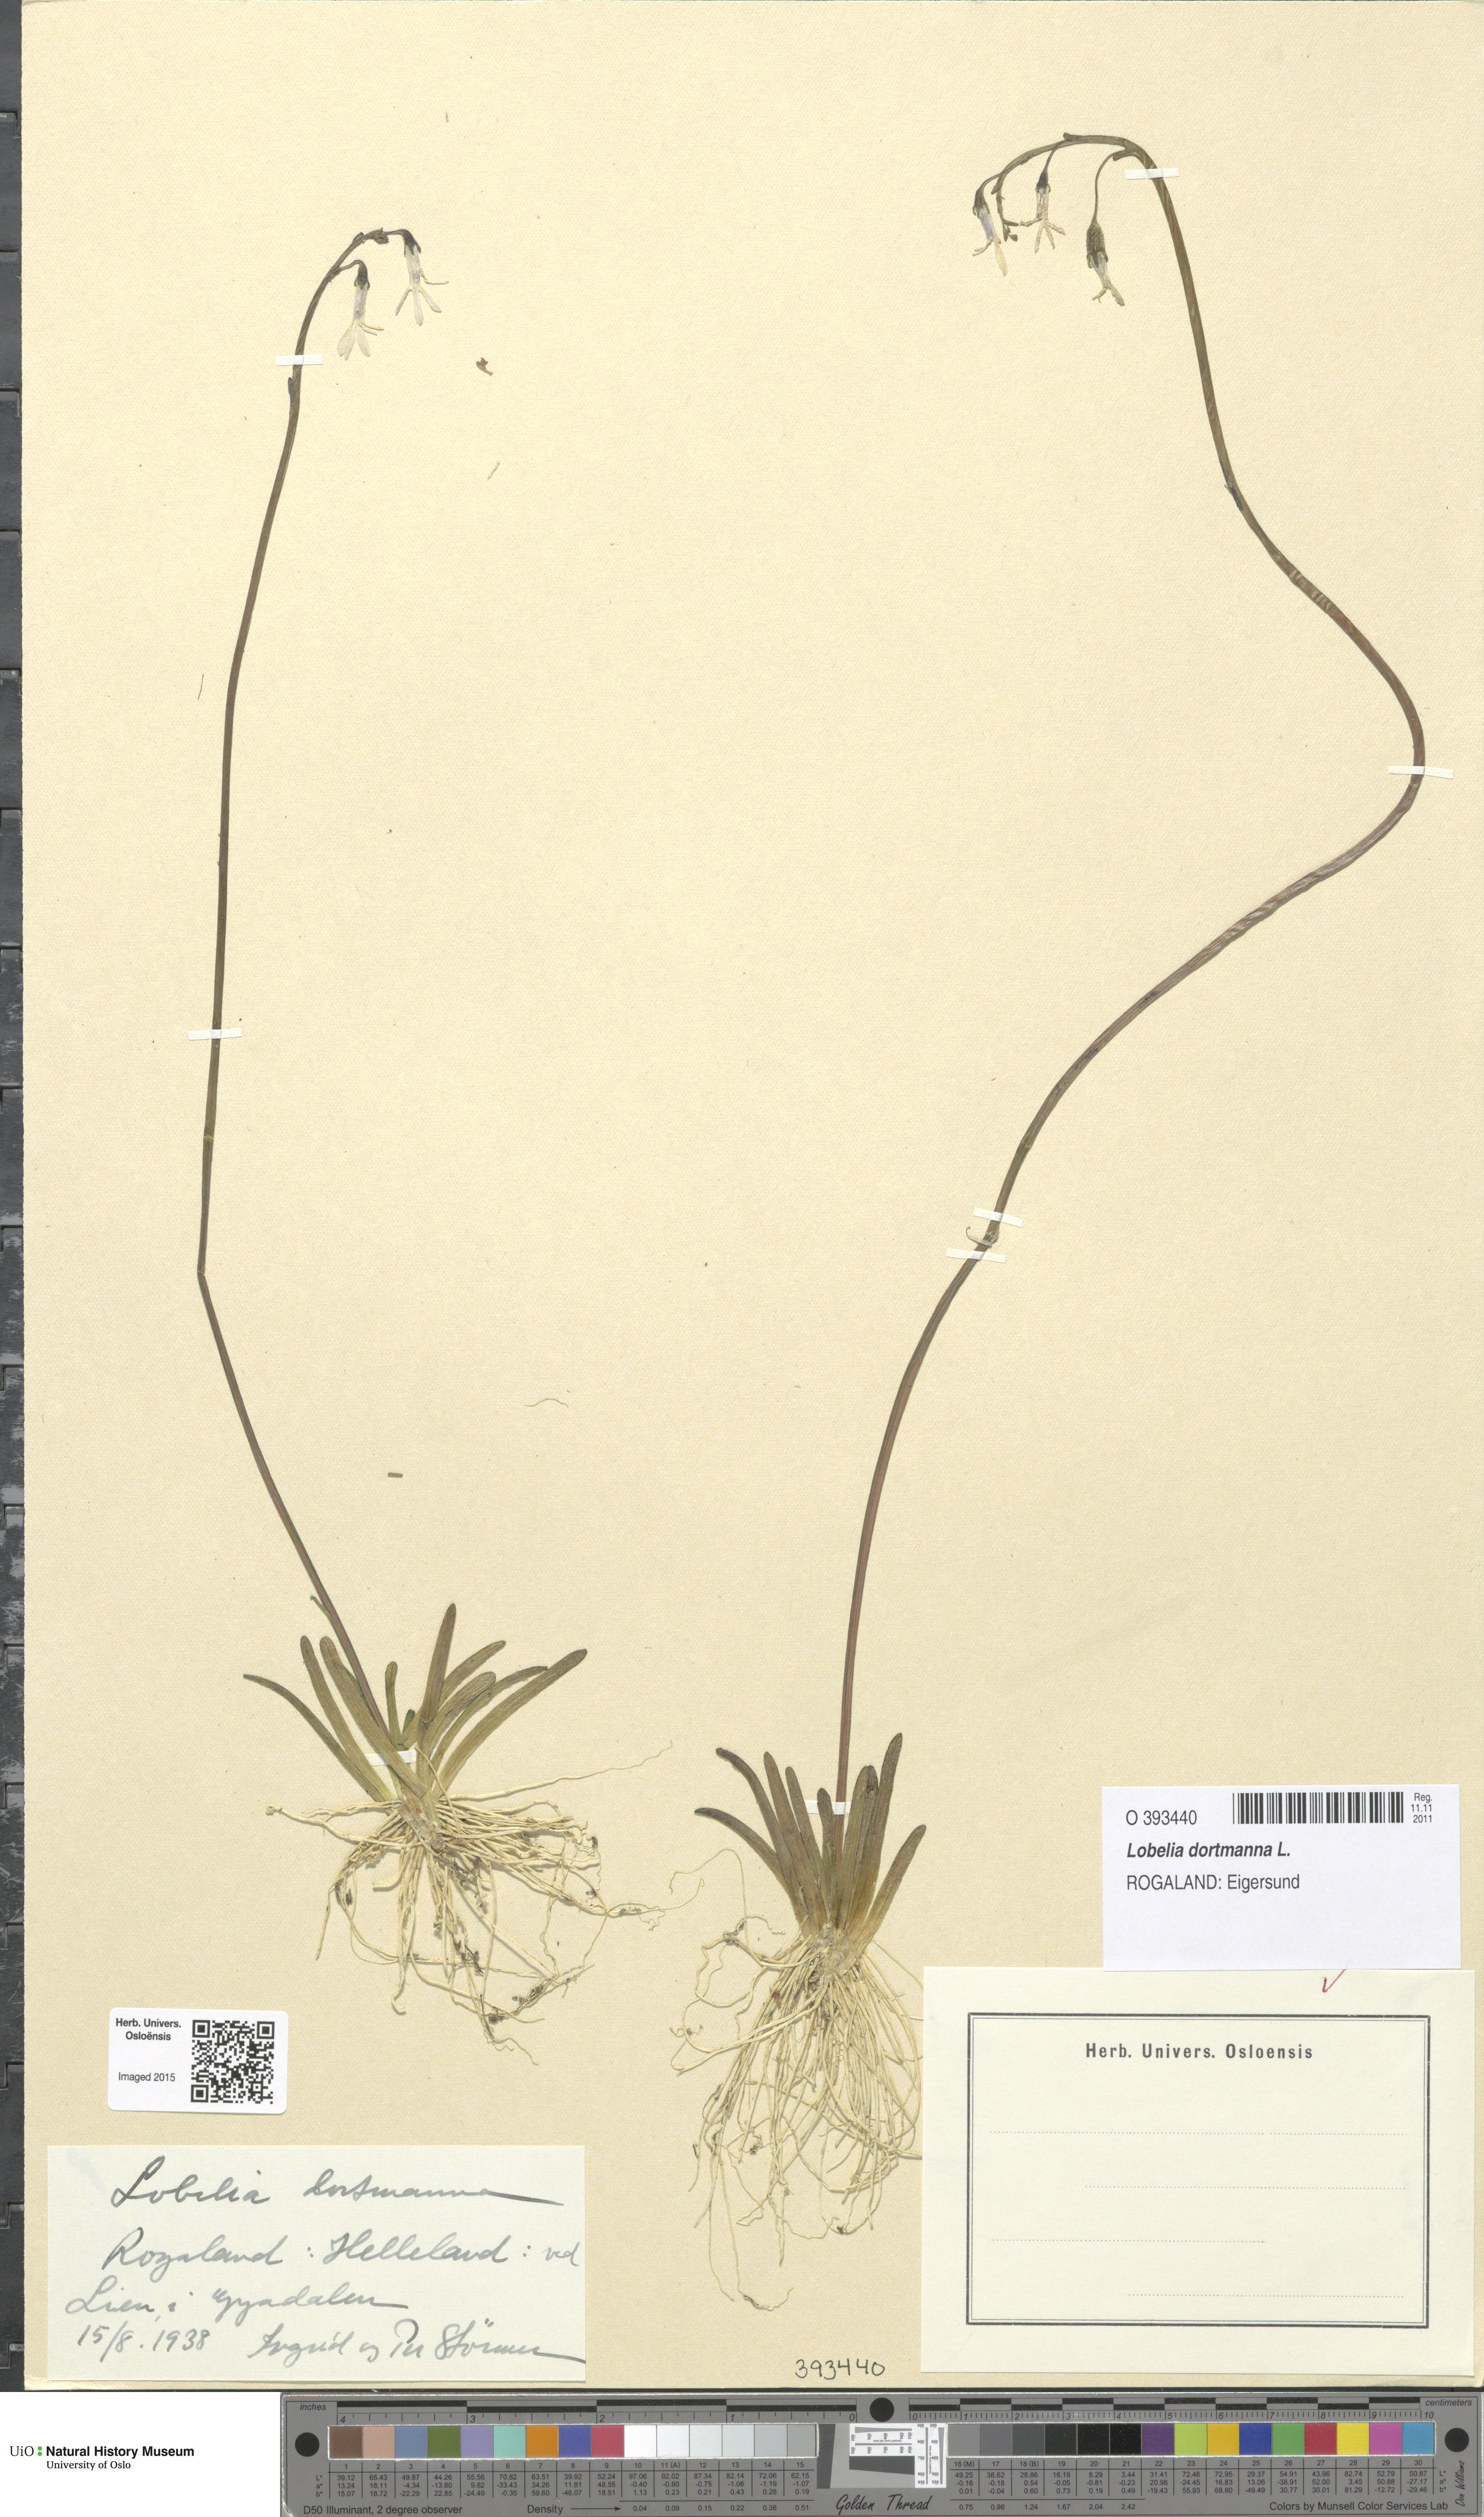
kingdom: Plantae
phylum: Tracheophyta
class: Magnoliopsida
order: Asterales
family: Campanulaceae
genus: Lobelia
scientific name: Lobelia dortmanna
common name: Water lobelia
